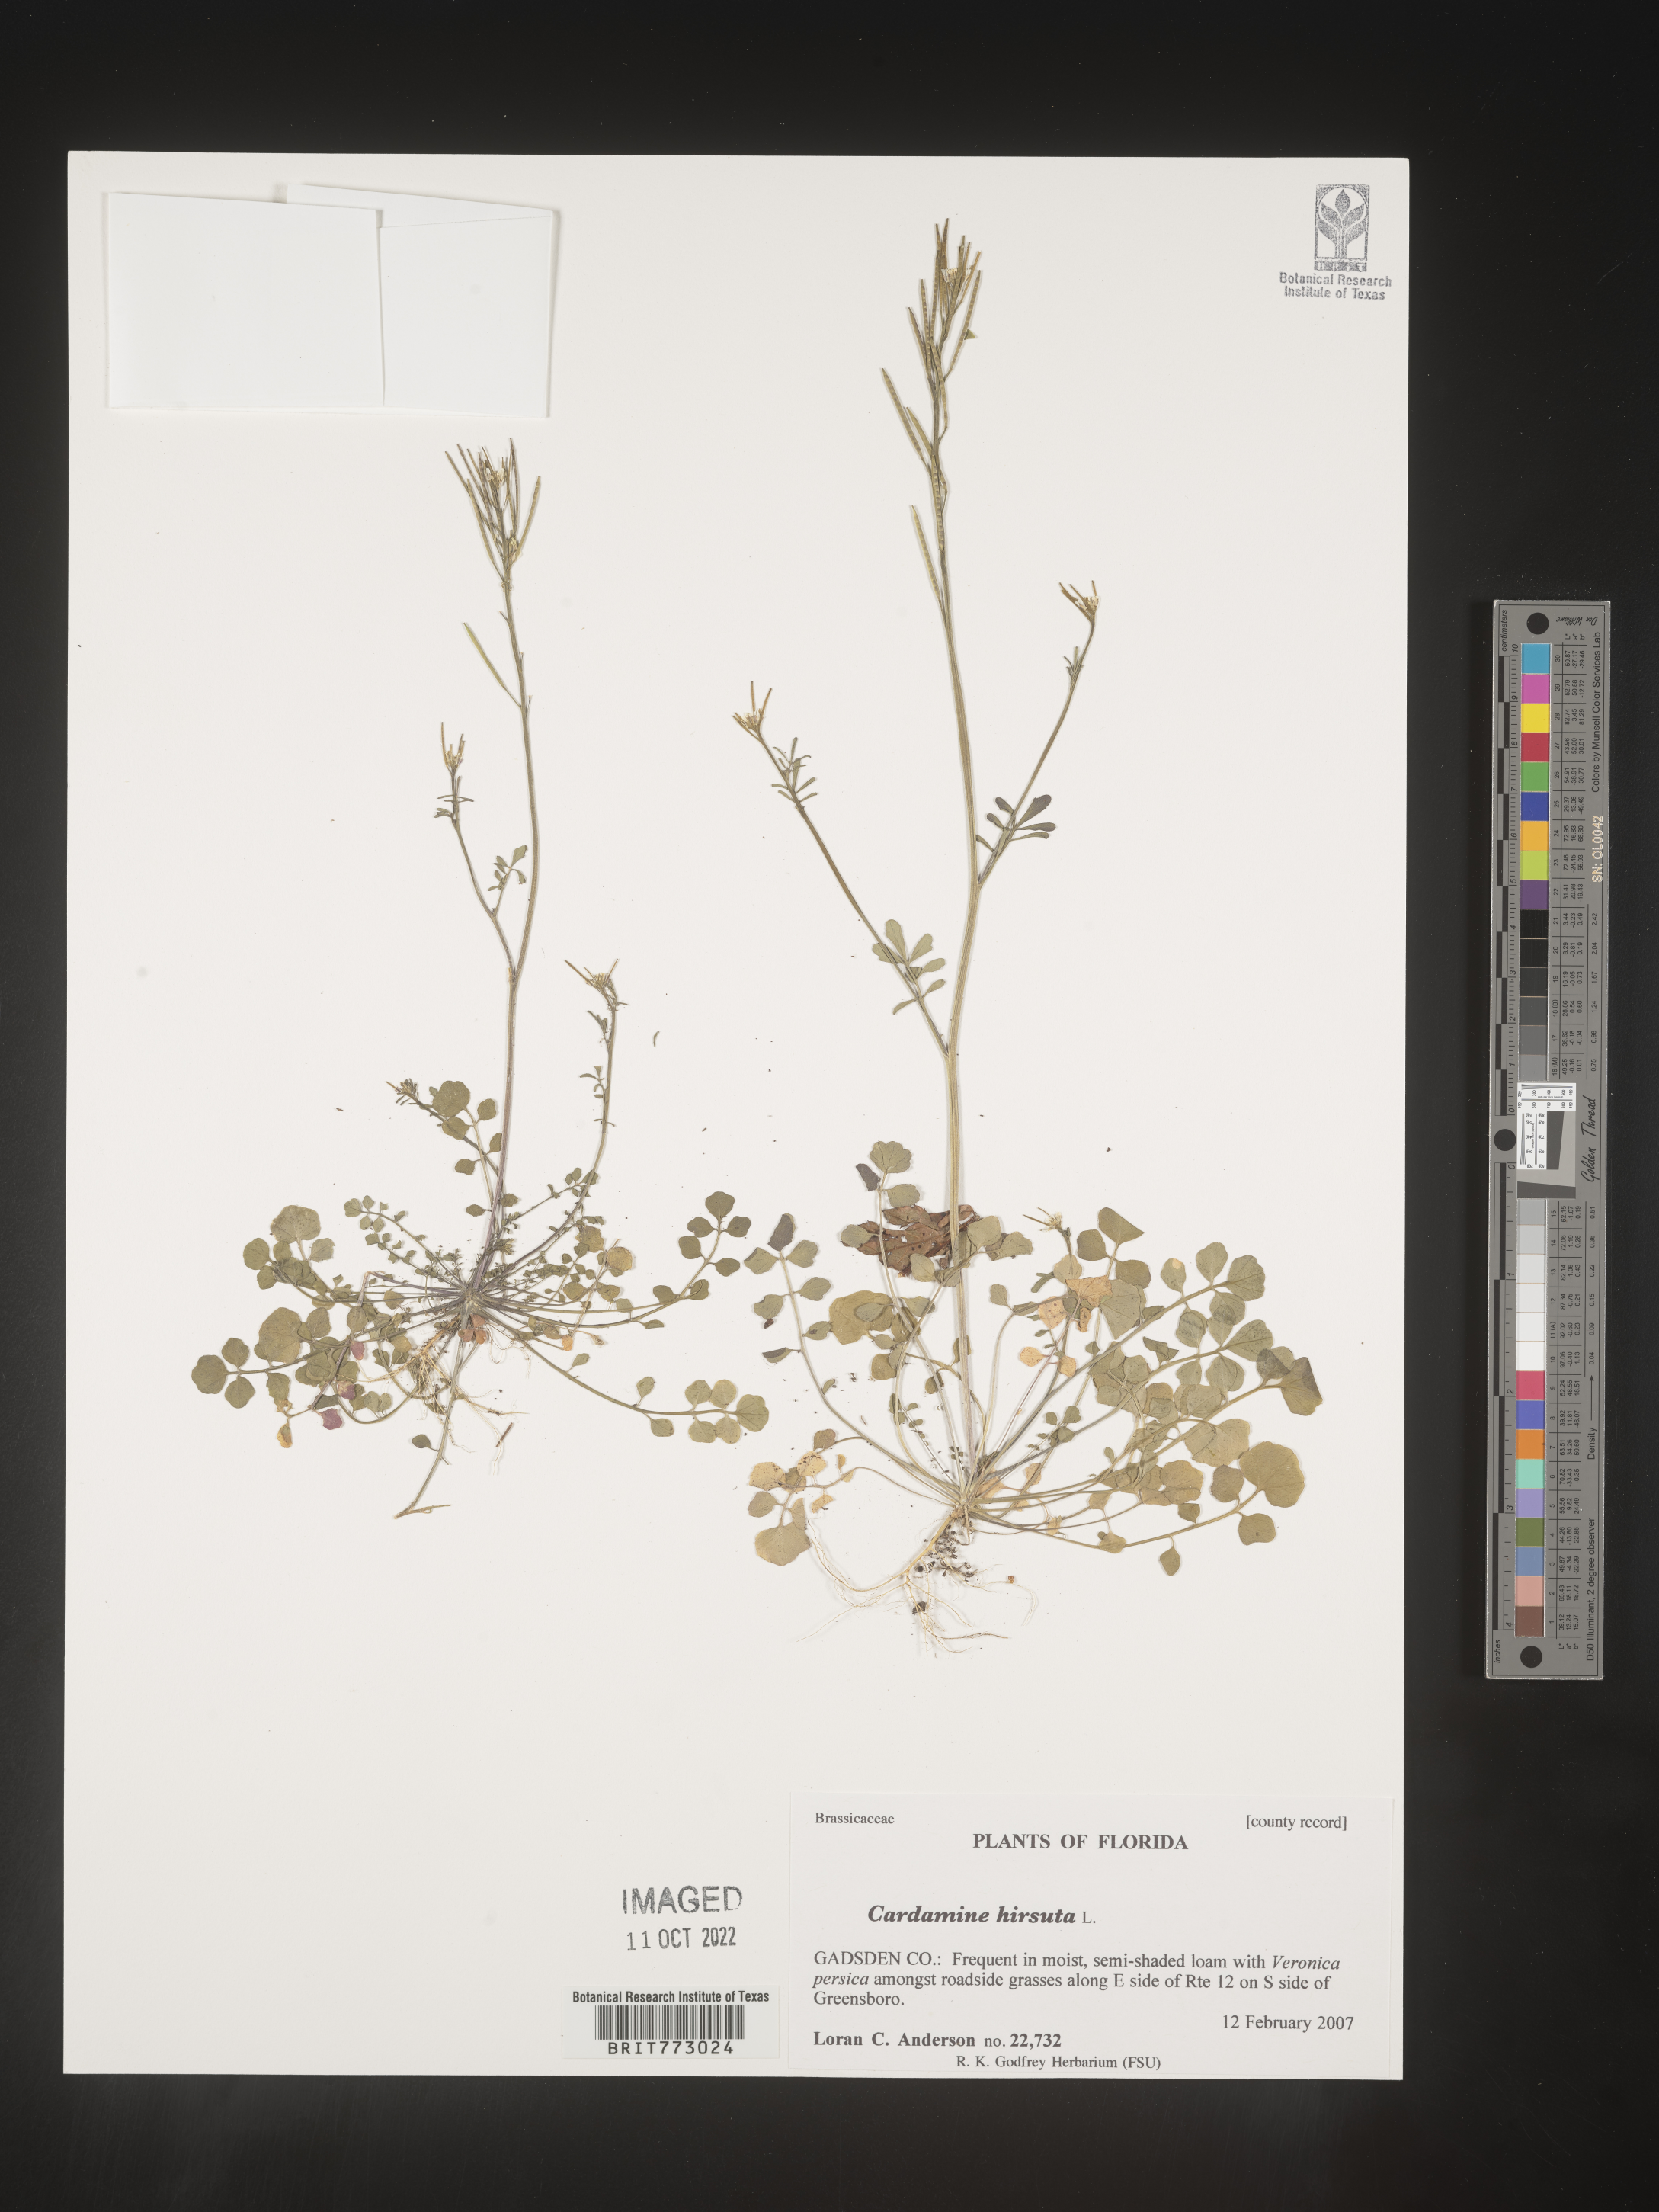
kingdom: Plantae
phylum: Tracheophyta
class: Magnoliopsida
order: Brassicales
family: Brassicaceae
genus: Cardamine
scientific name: Cardamine
